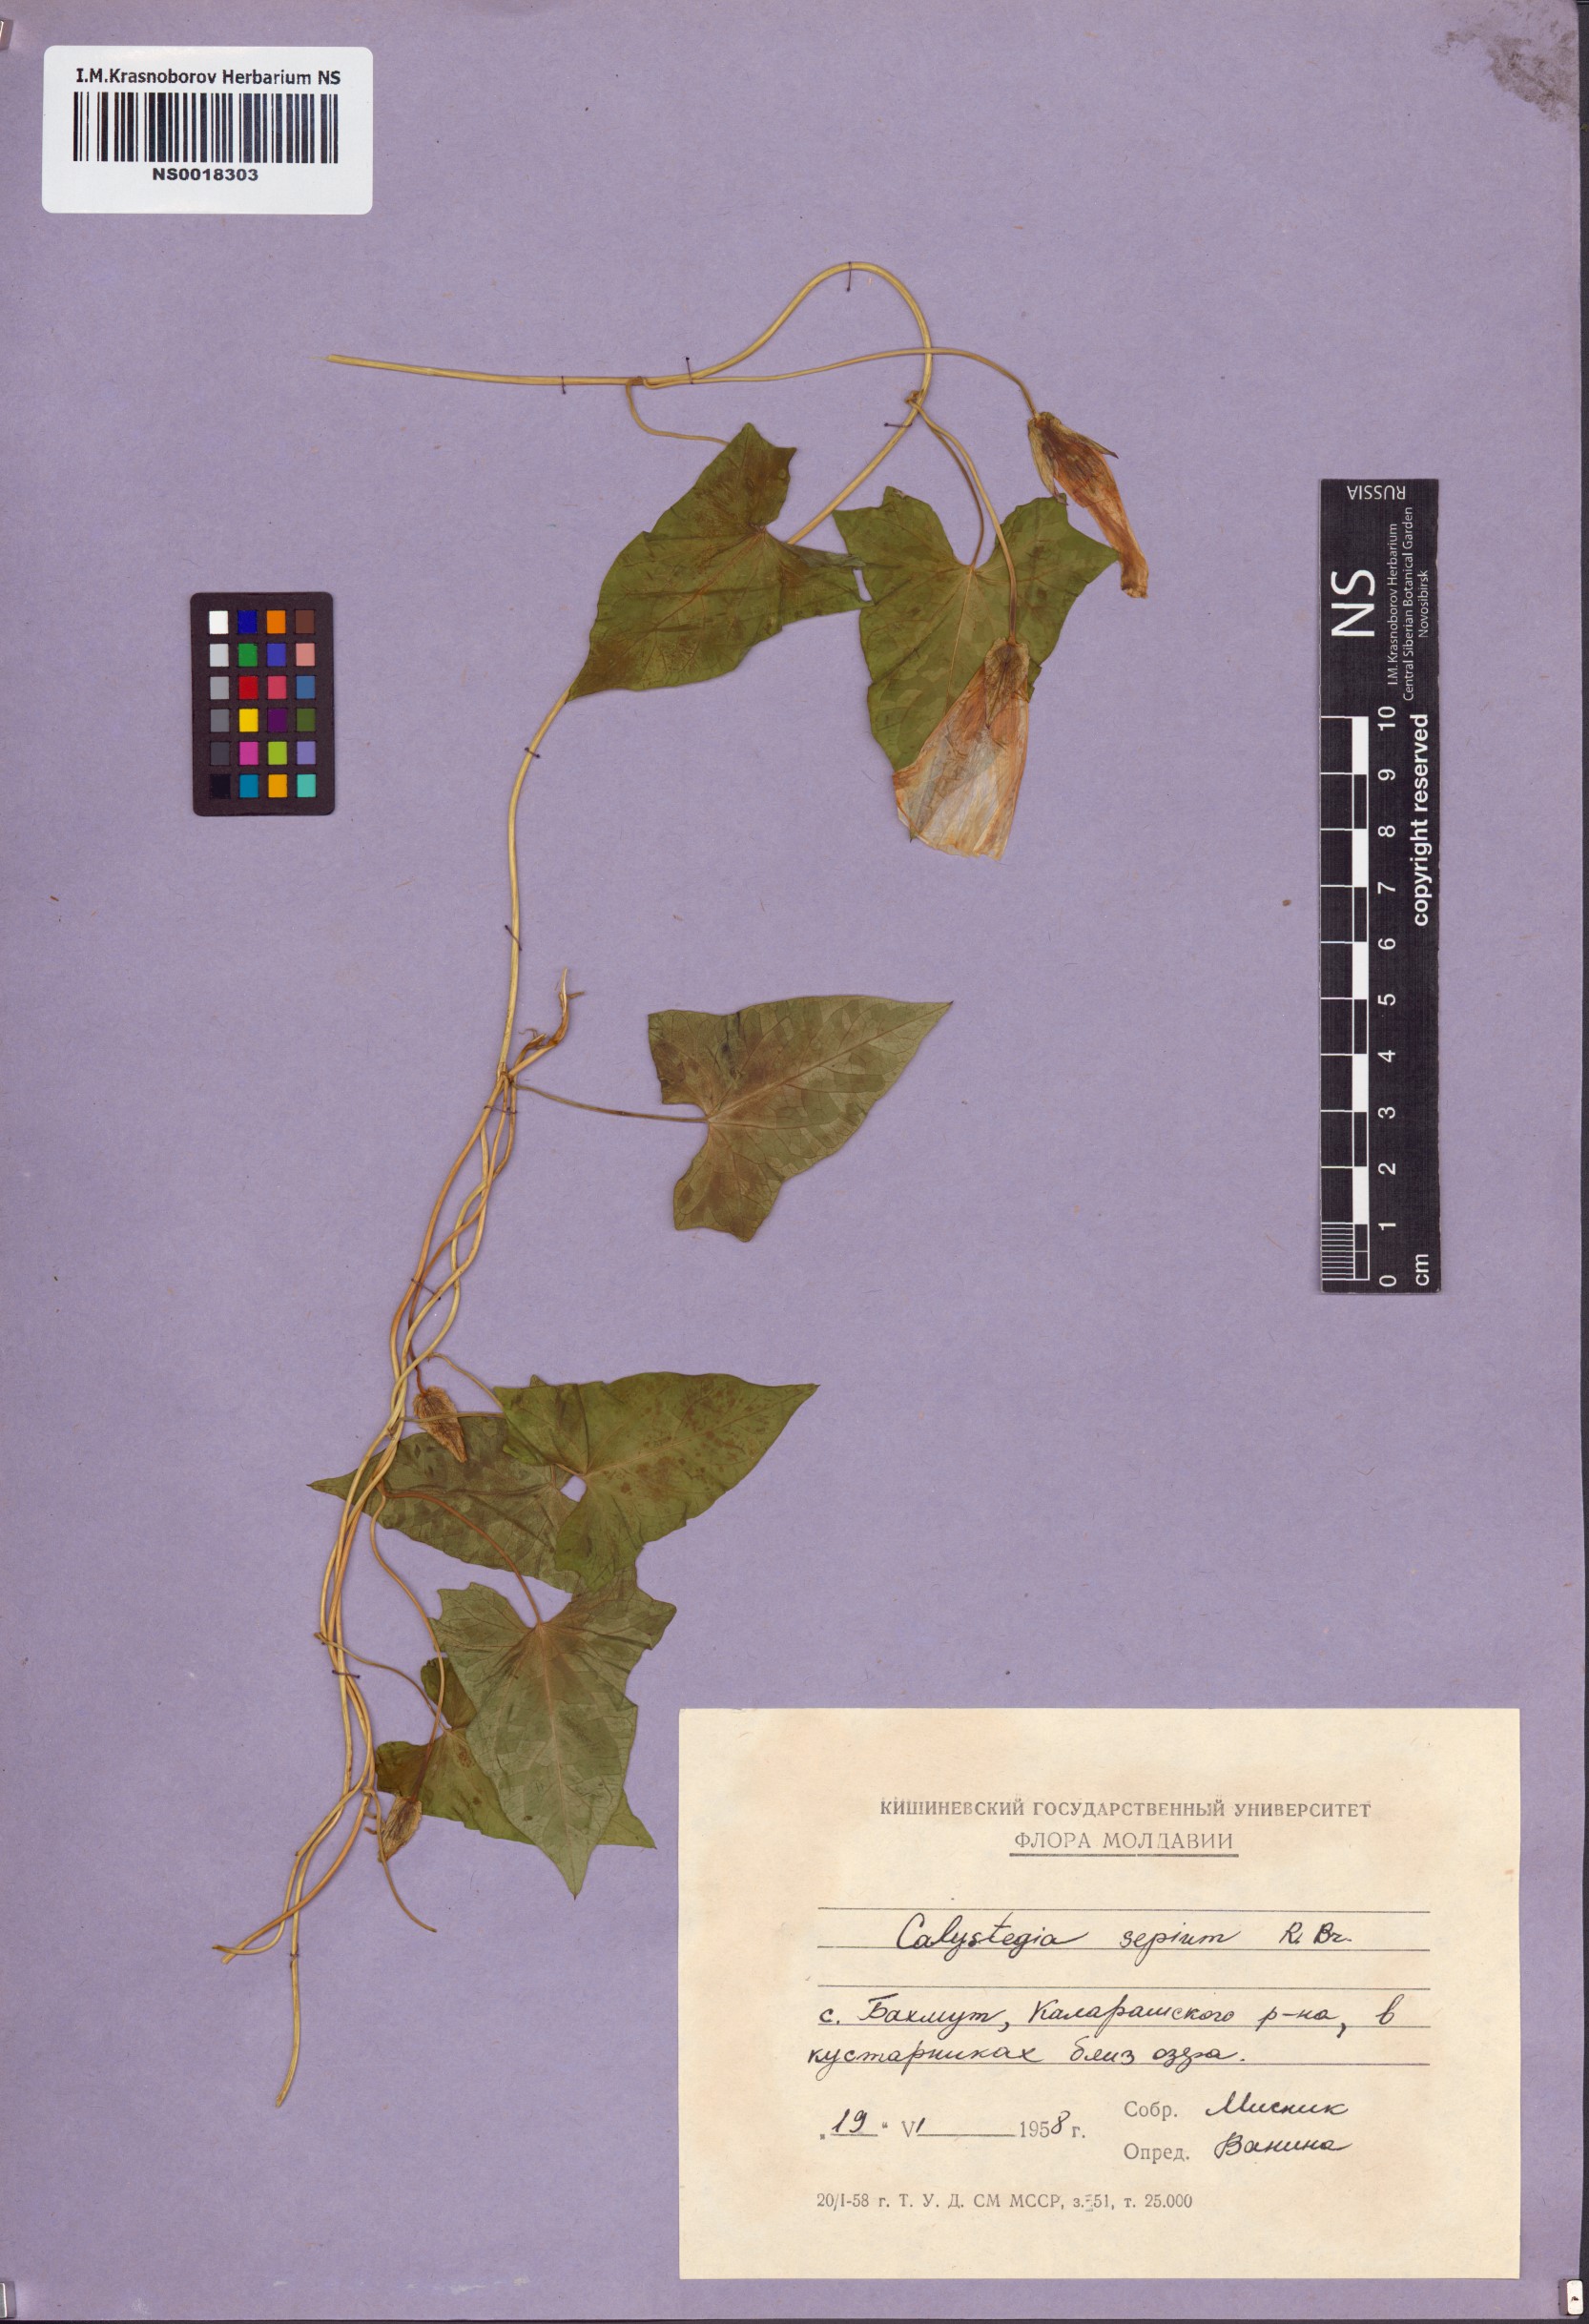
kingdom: Plantae
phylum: Tracheophyta
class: Magnoliopsida
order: Solanales
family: Convolvulaceae
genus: Calystegia
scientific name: Calystegia sepium
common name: Hedge bindweed
